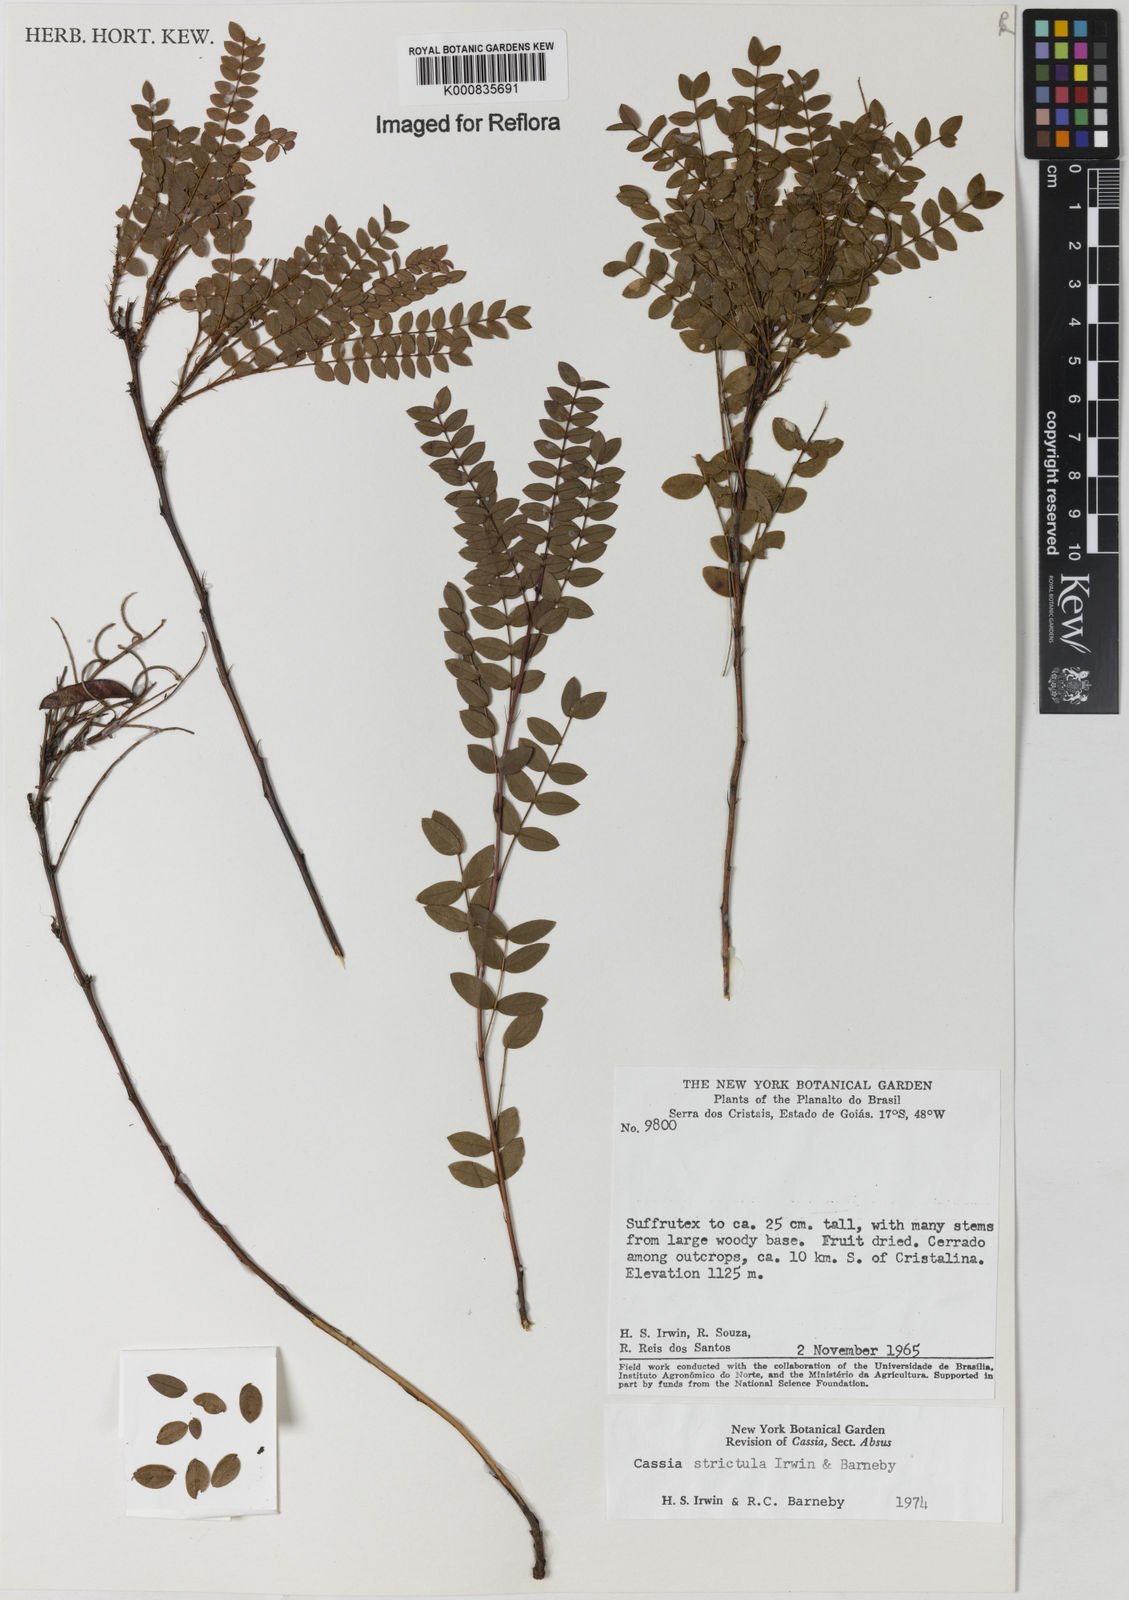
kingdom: Plantae
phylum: Tracheophyta
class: Magnoliopsida
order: Fabales
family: Fabaceae
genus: Chamaecrista
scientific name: Chamaecrista strictula
